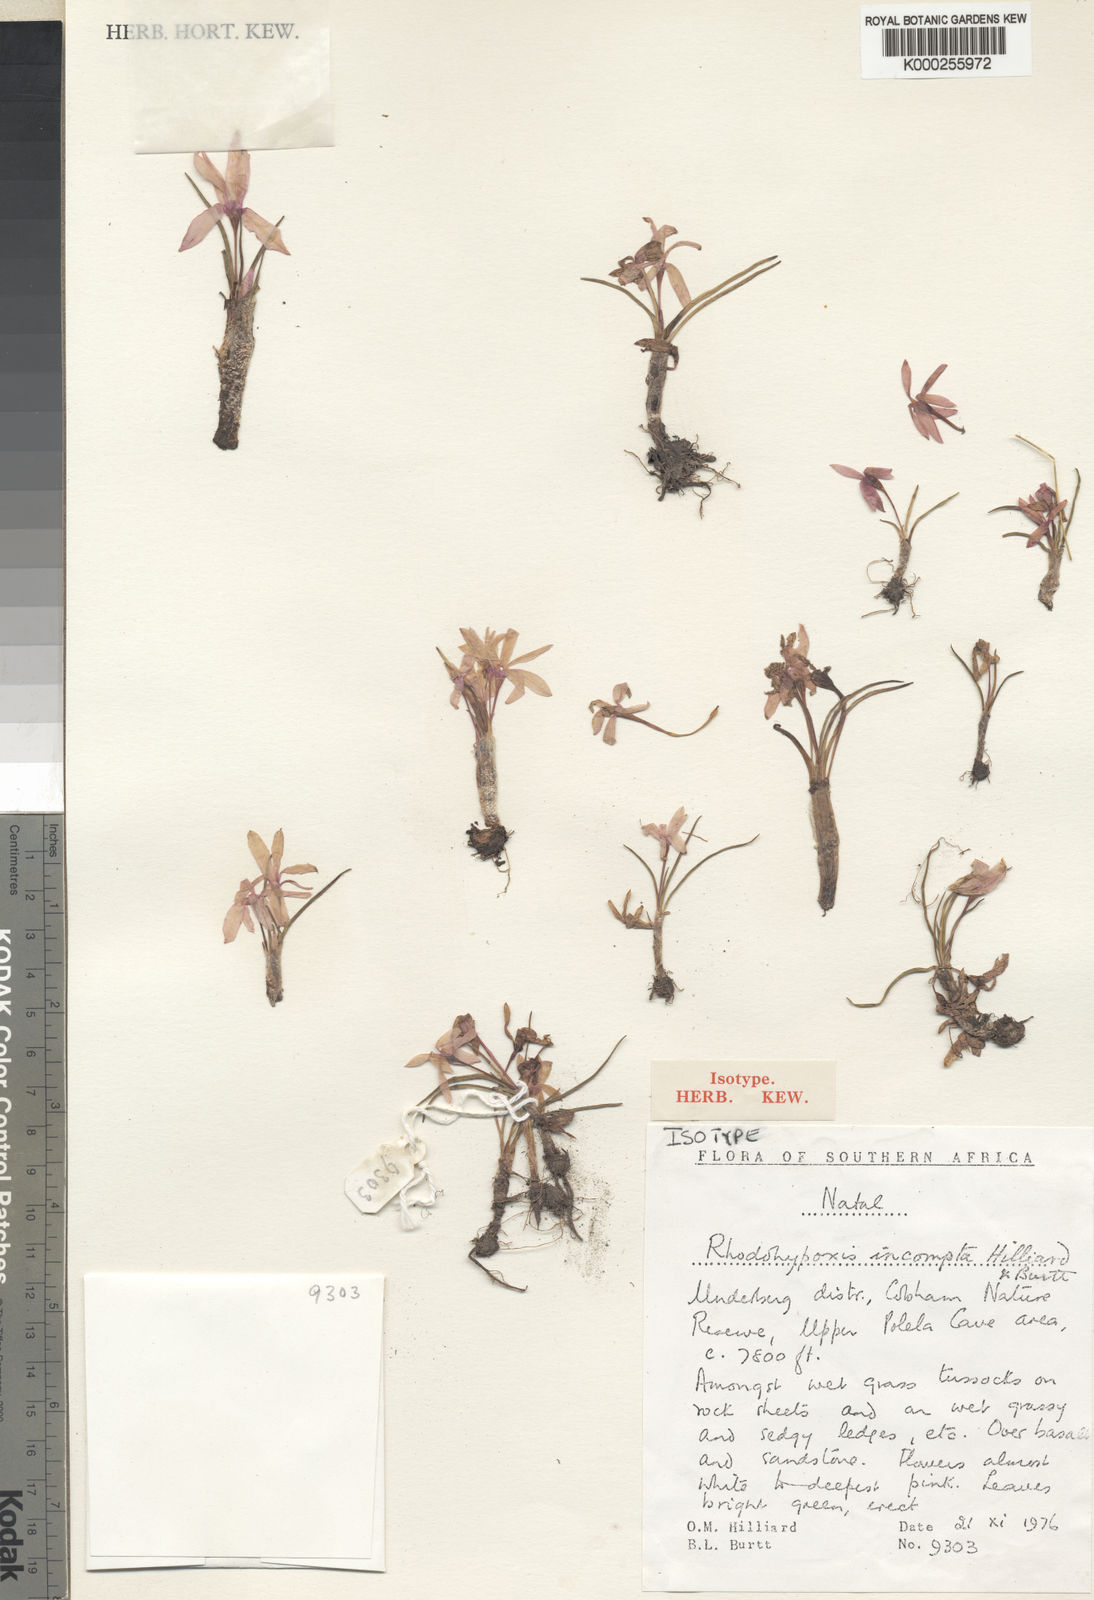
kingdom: Plantae
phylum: Tracheophyta
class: Liliopsida
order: Asparagales
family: Hypoxidaceae
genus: Hypoxis
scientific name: Hypoxis Rhodohypoxis incompta
